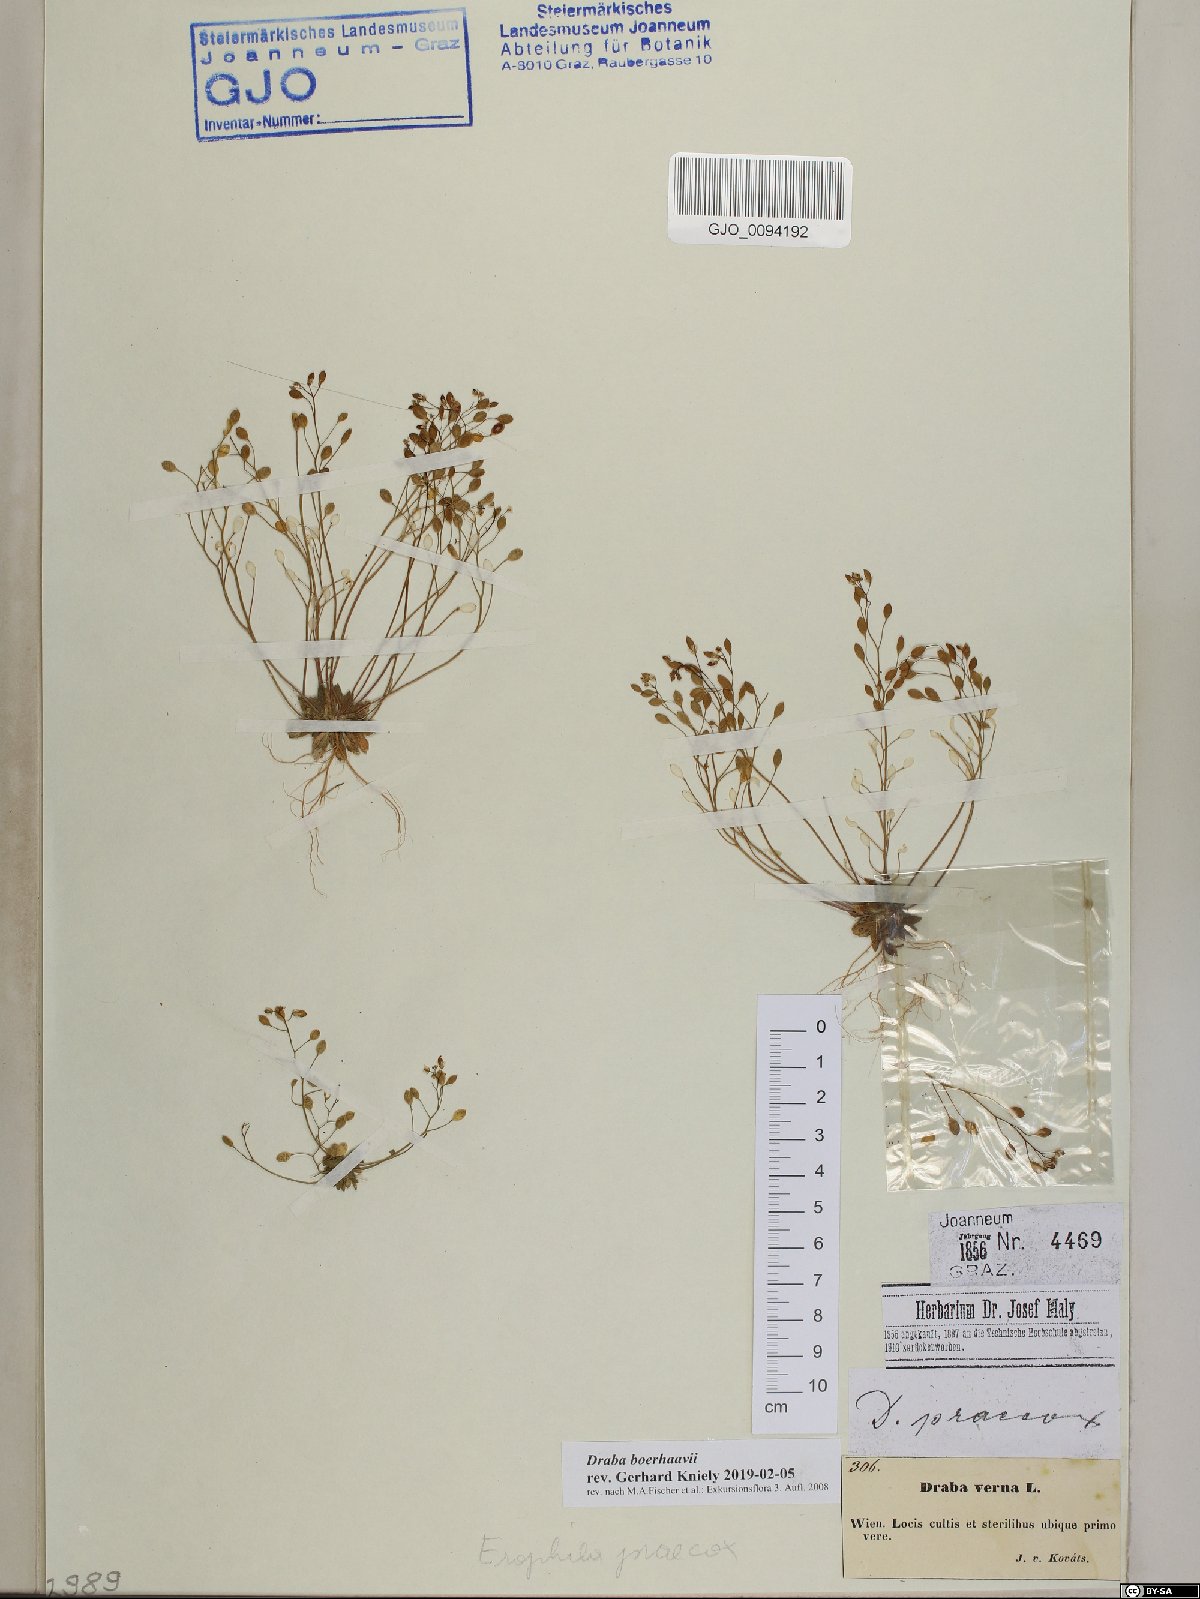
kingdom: Plantae
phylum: Tracheophyta
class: Magnoliopsida
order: Brassicales
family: Brassicaceae
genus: Draba
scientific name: Draba verna
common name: Spring draba
